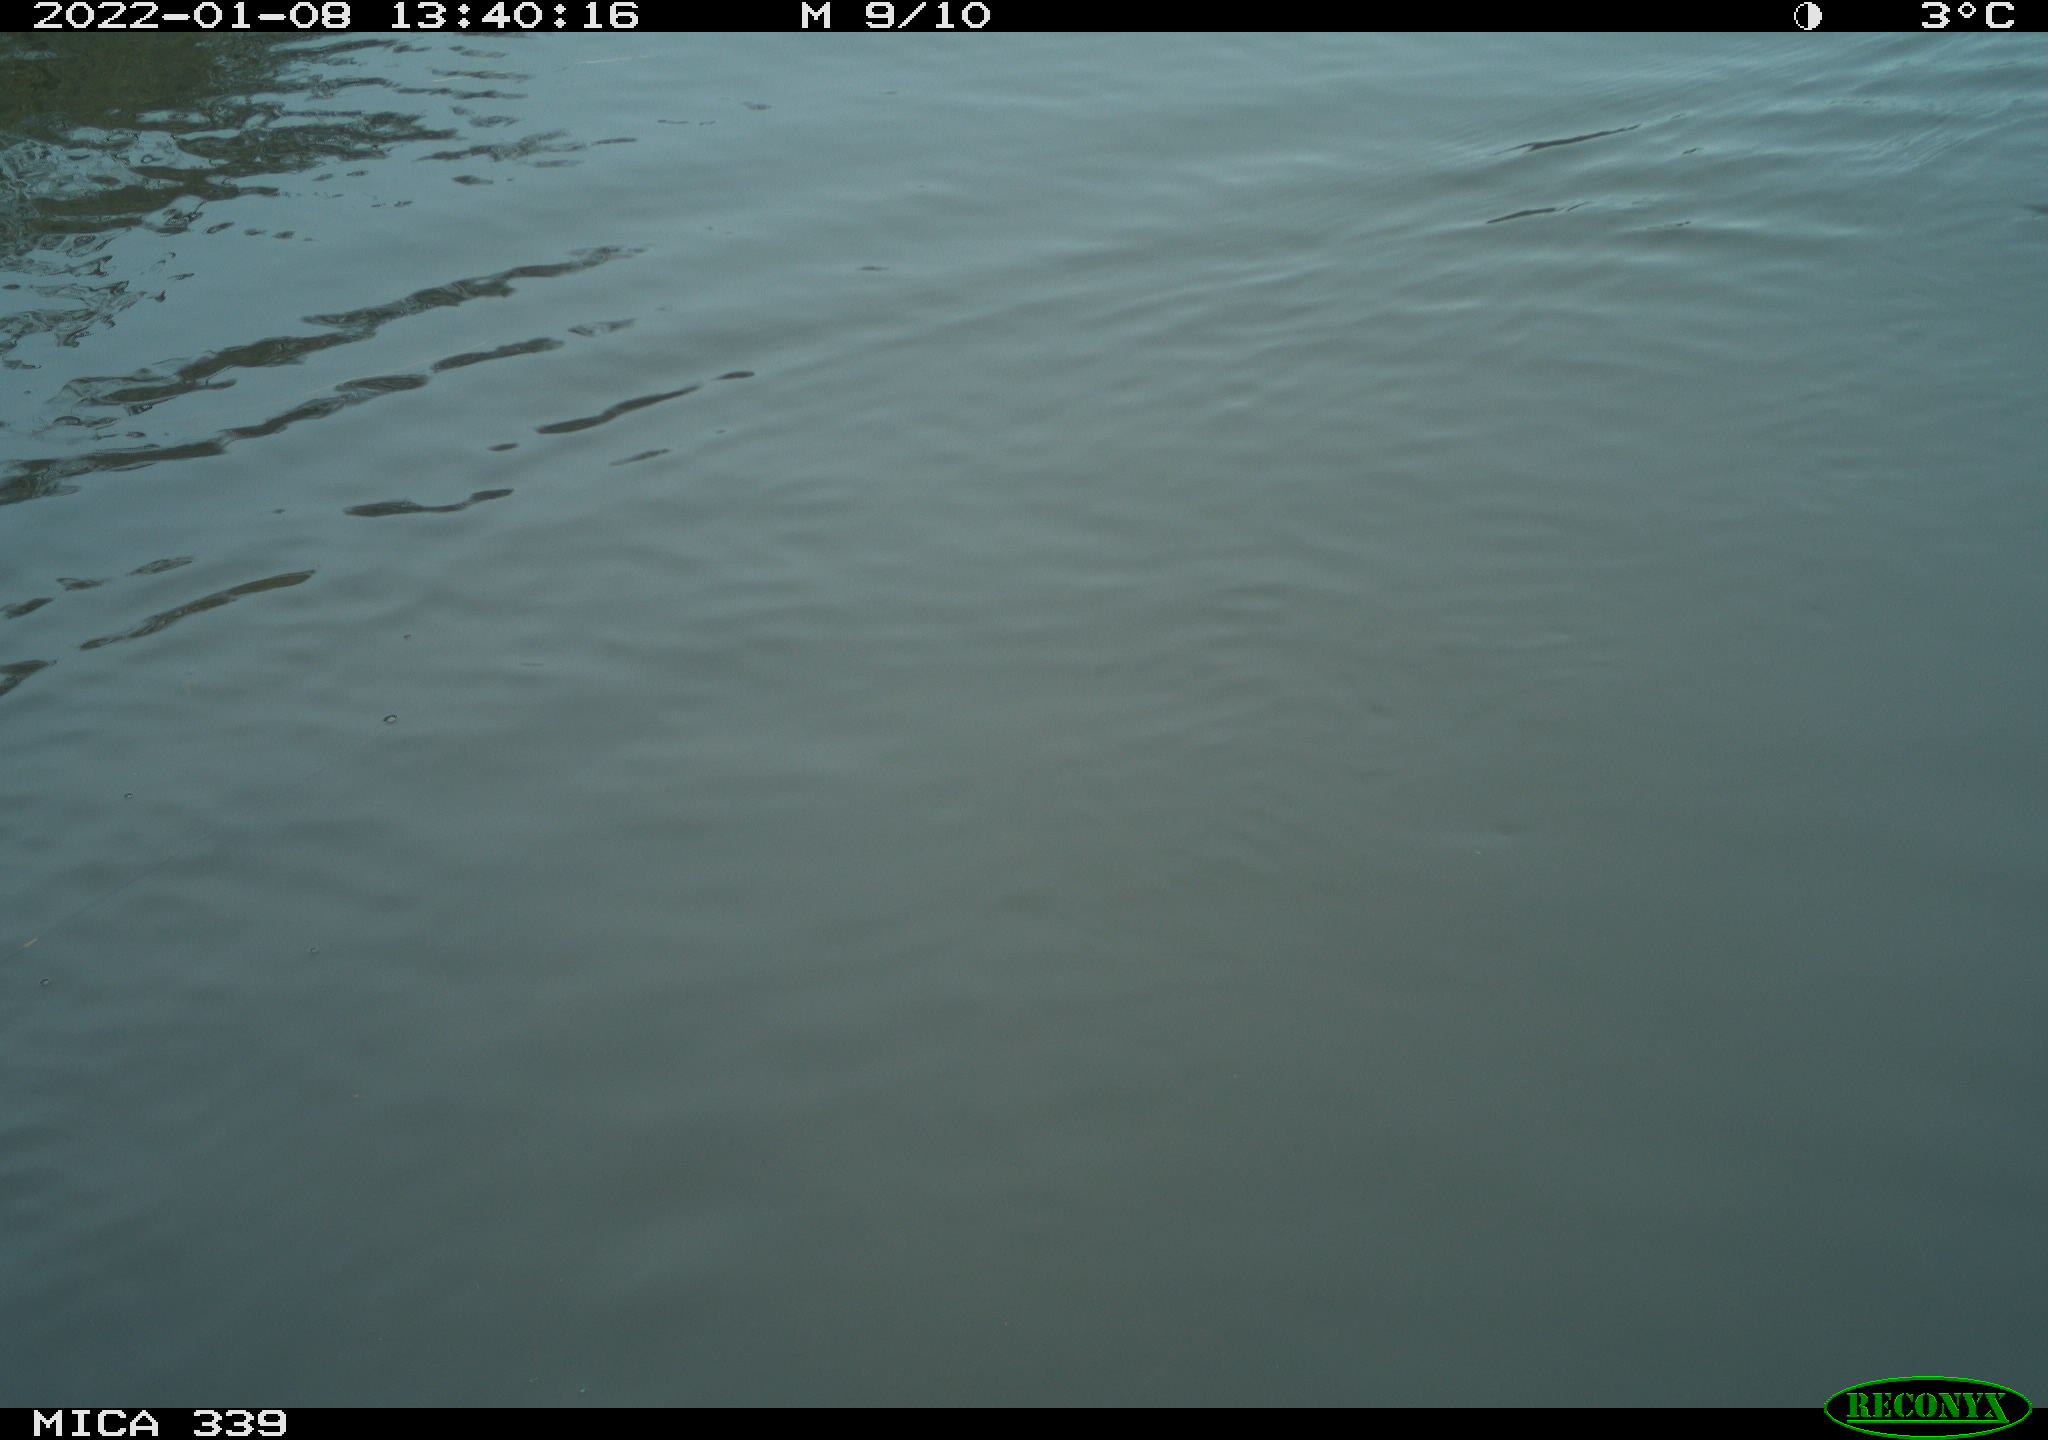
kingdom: Animalia
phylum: Chordata
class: Aves
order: Suliformes
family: Phalacrocoracidae
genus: Phalacrocorax
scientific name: Phalacrocorax carbo
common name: Great cormorant
